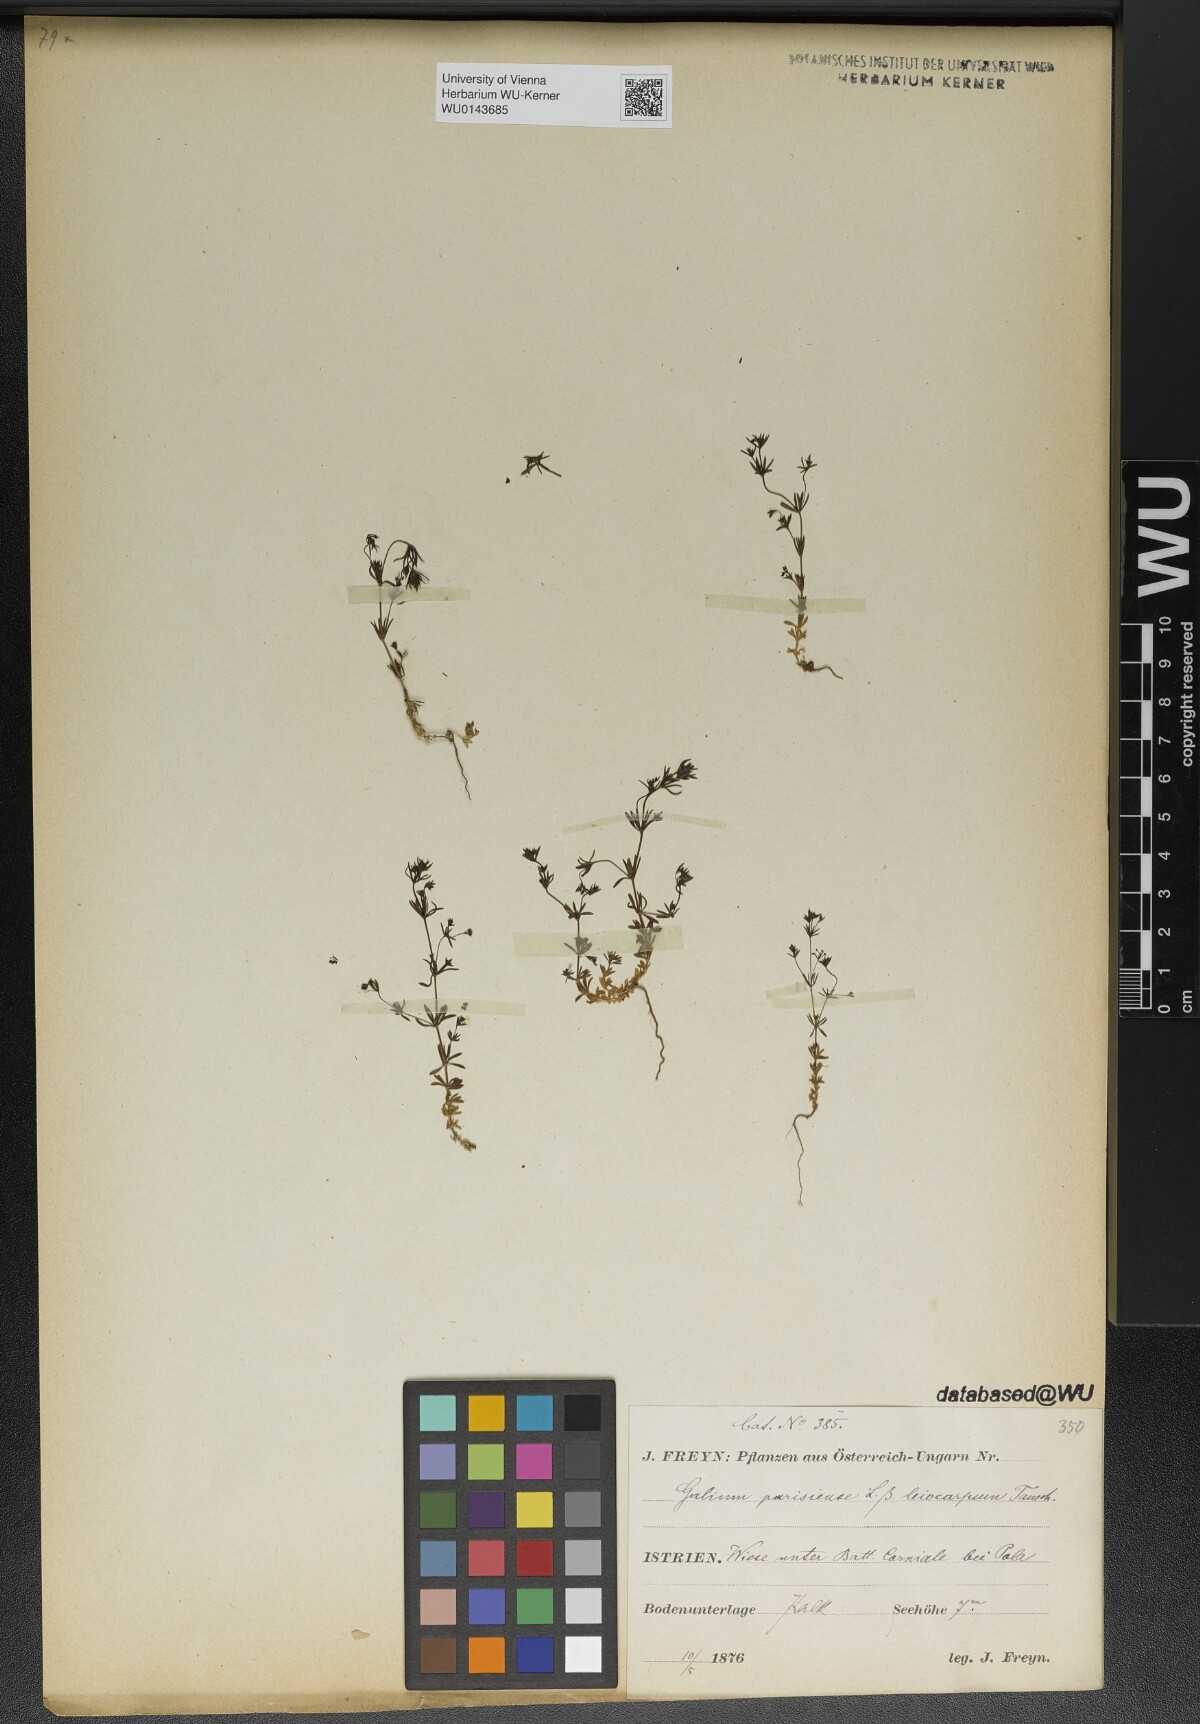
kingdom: Plantae
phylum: Tracheophyta
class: Magnoliopsida
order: Gentianales
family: Rubiaceae
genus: Galium
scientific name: Galium parisiense
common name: Wall bedstraw
